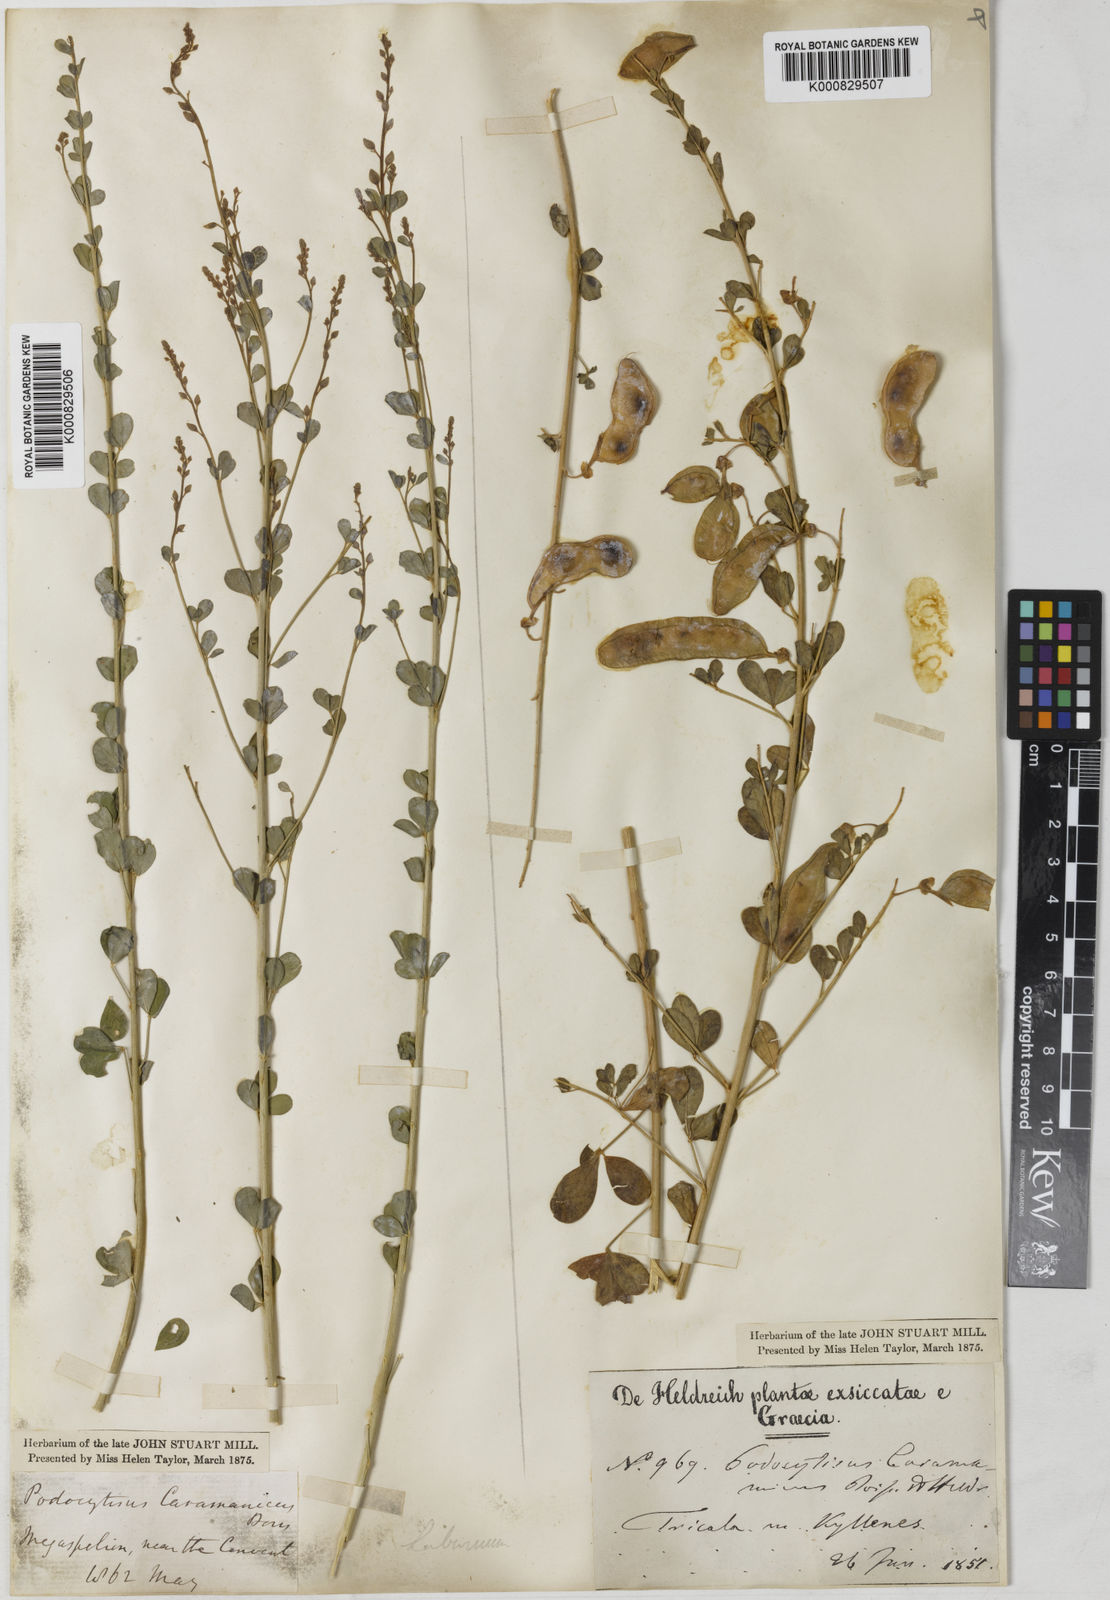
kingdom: Plantae
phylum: Tracheophyta
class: Magnoliopsida
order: Fabales
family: Fabaceae
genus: Podocytisus
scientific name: Podocytisus caramanicus
